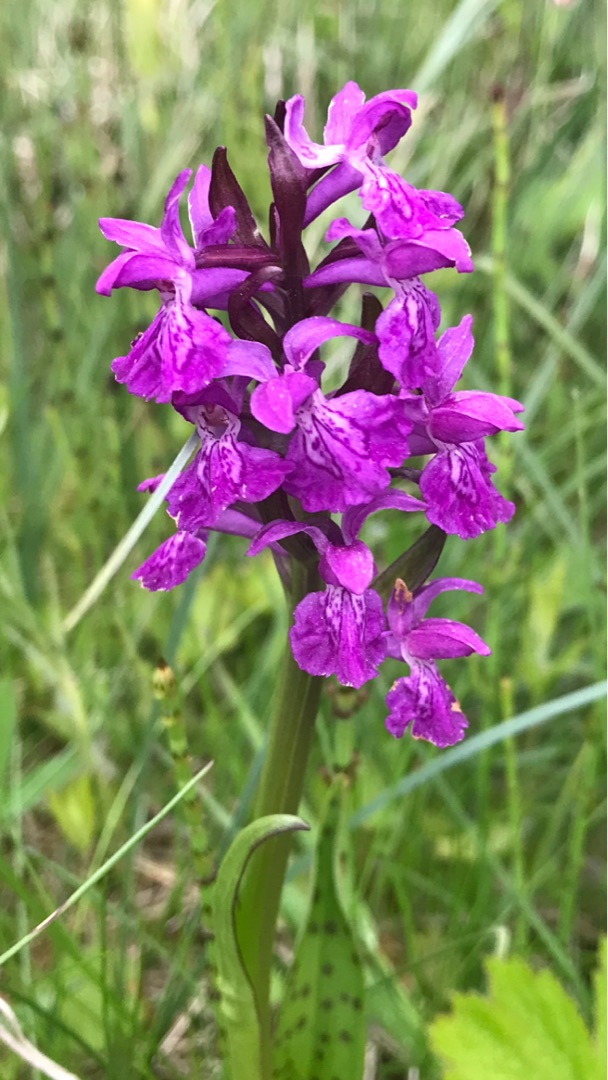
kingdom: Plantae
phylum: Tracheophyta
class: Liliopsida
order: Asparagales
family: Orchidaceae
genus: Dactylorhiza
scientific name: Dactylorhiza majalis
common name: Maj-gøgeurt
